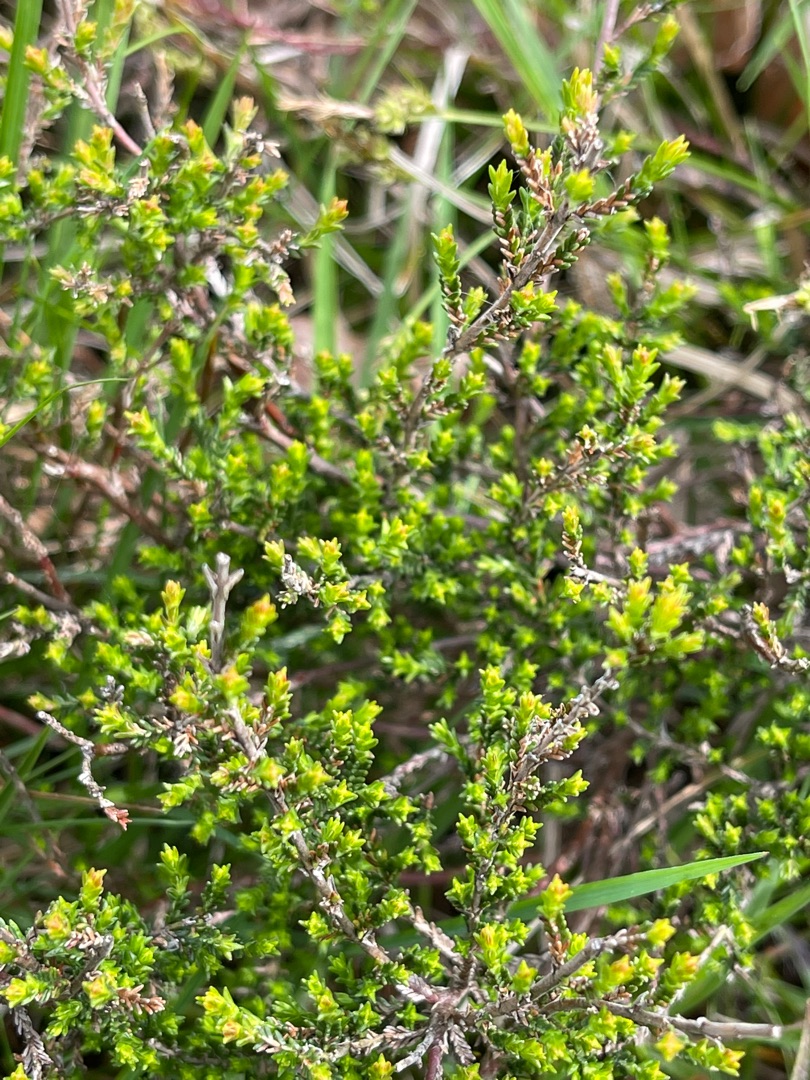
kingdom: Plantae
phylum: Tracheophyta
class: Magnoliopsida
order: Ericales
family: Ericaceae
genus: Calluna
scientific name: Calluna vulgaris
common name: Hedelyng
